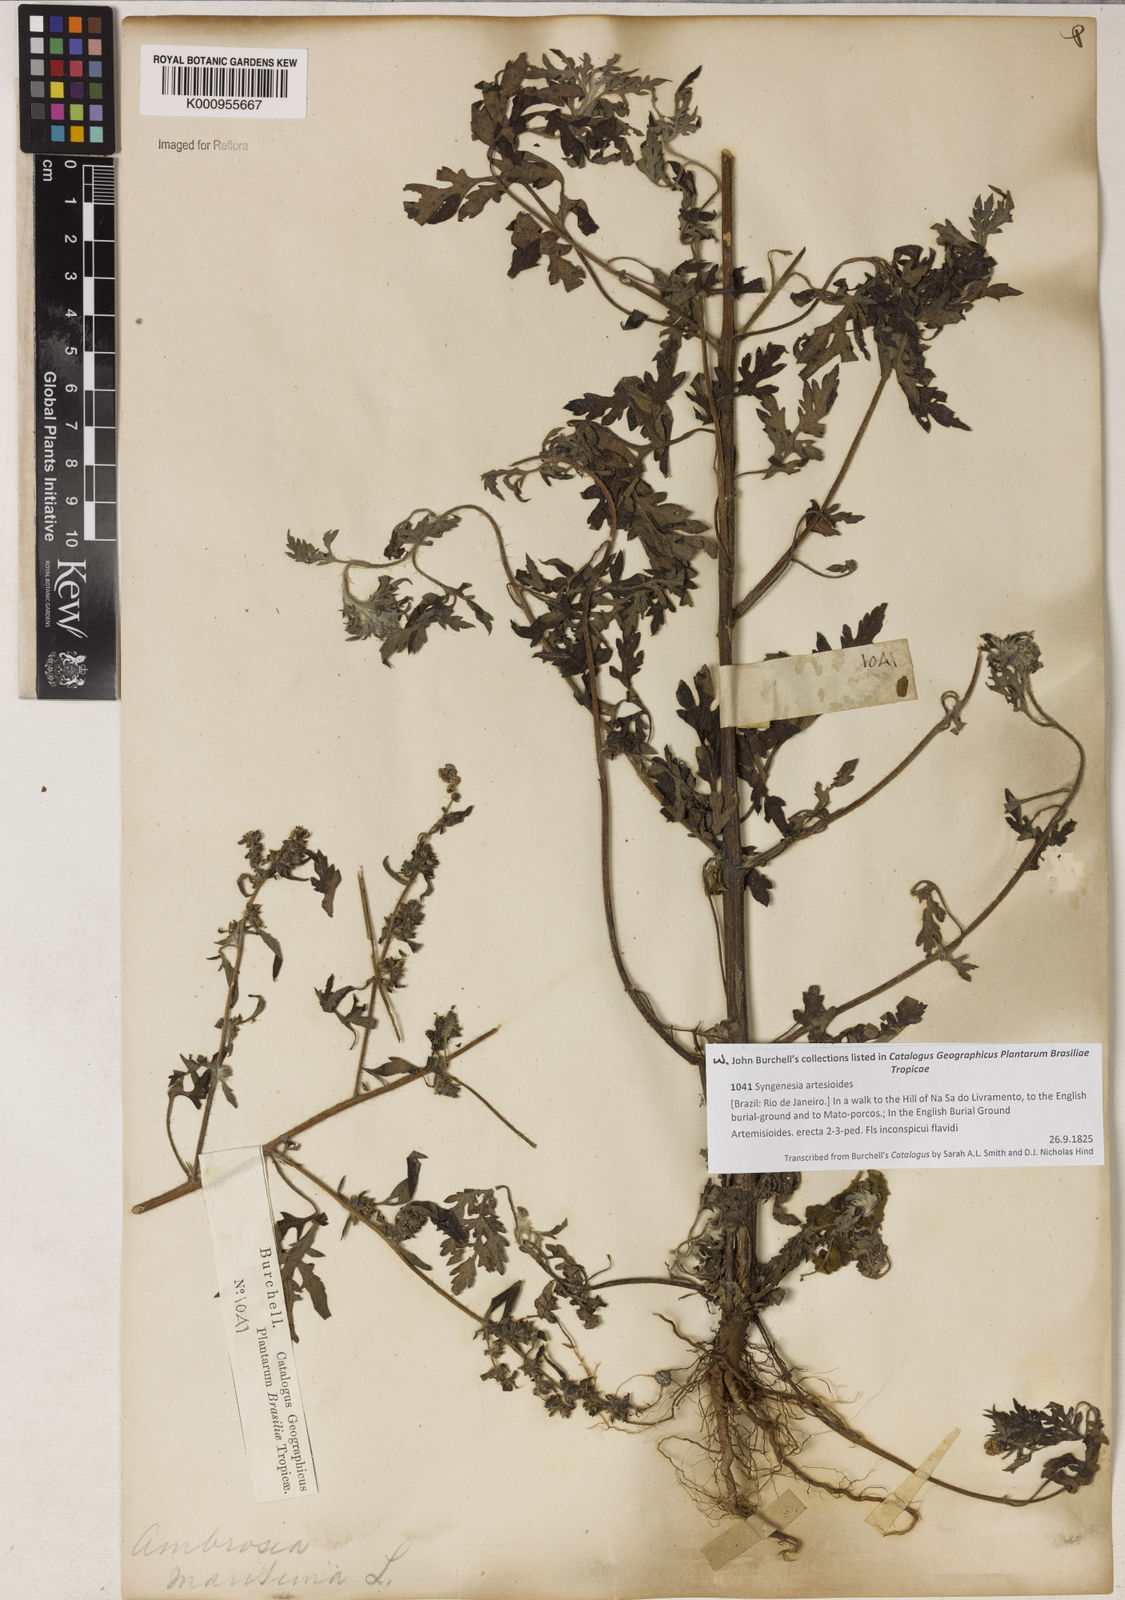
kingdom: Plantae
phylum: Tracheophyta
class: Magnoliopsida
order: Asterales
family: Asteraceae
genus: Ambrosia
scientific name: Ambrosia hispida
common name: Coastal ragweed
